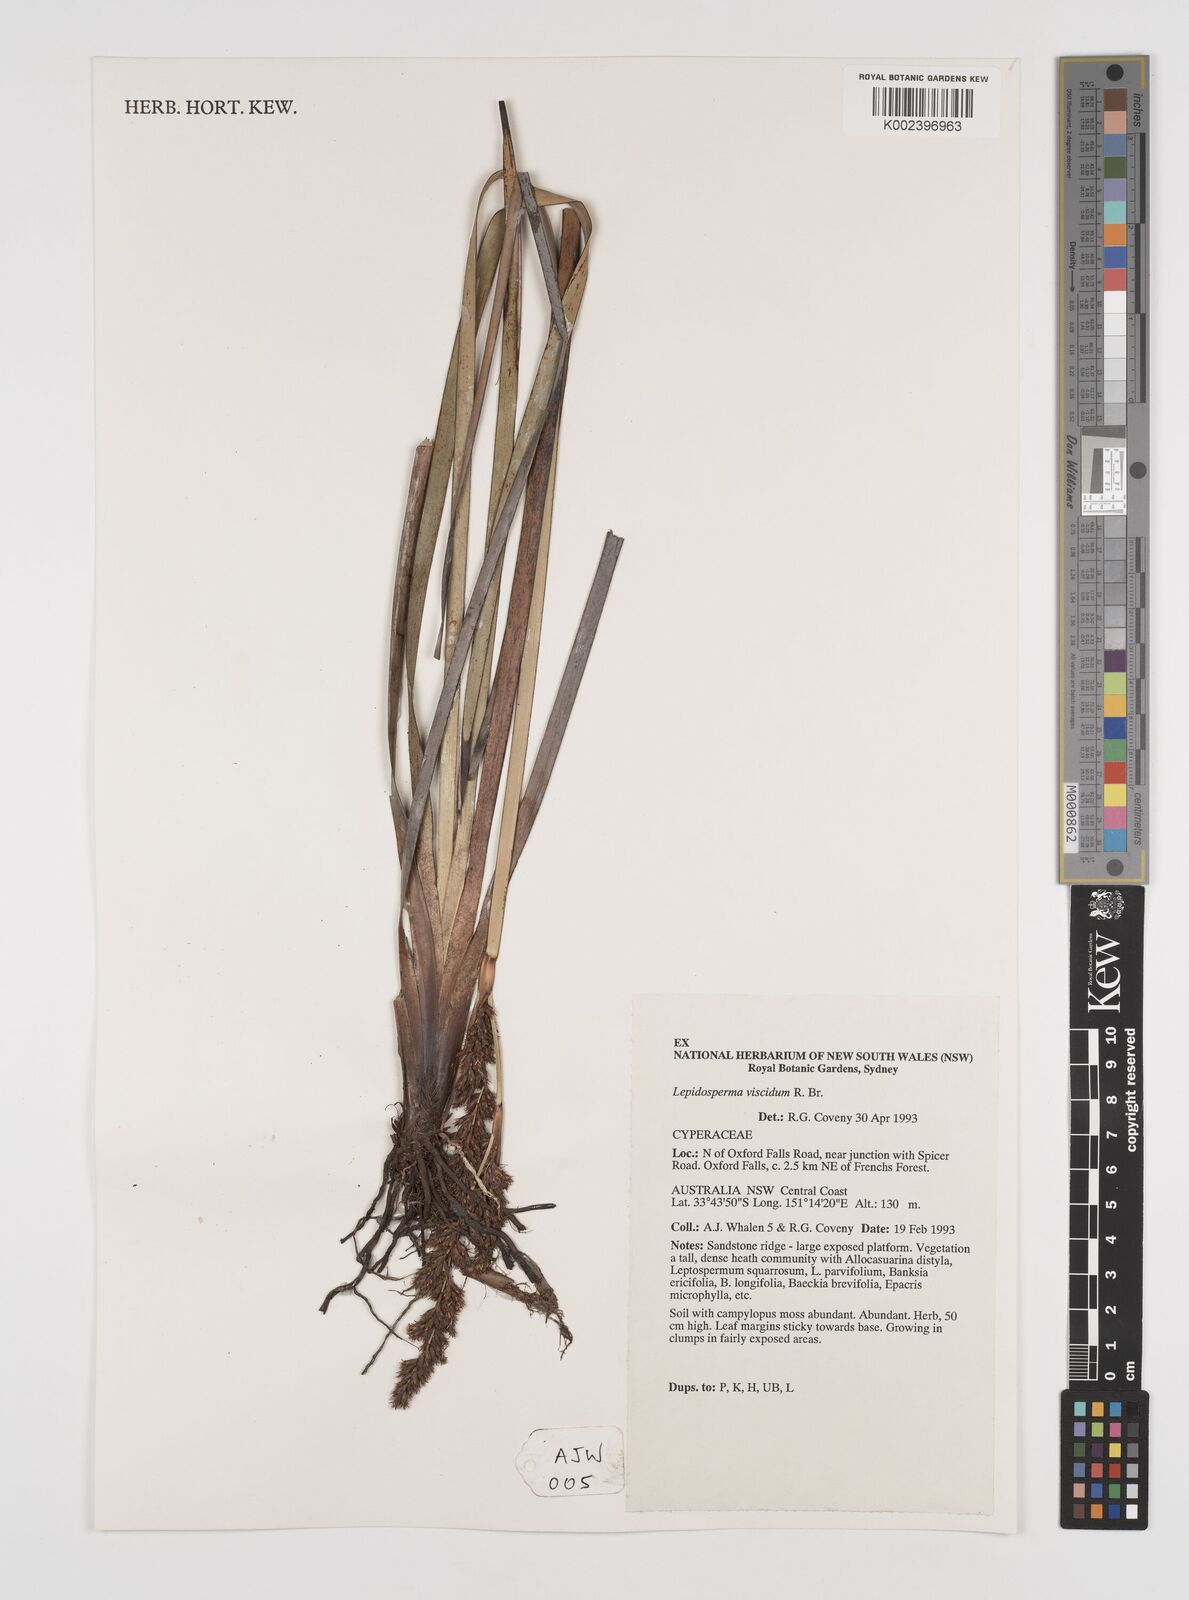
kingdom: Plantae
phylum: Tracheophyta
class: Liliopsida
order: Poales
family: Cyperaceae
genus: Lepidosperma
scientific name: Lepidosperma viscidum
